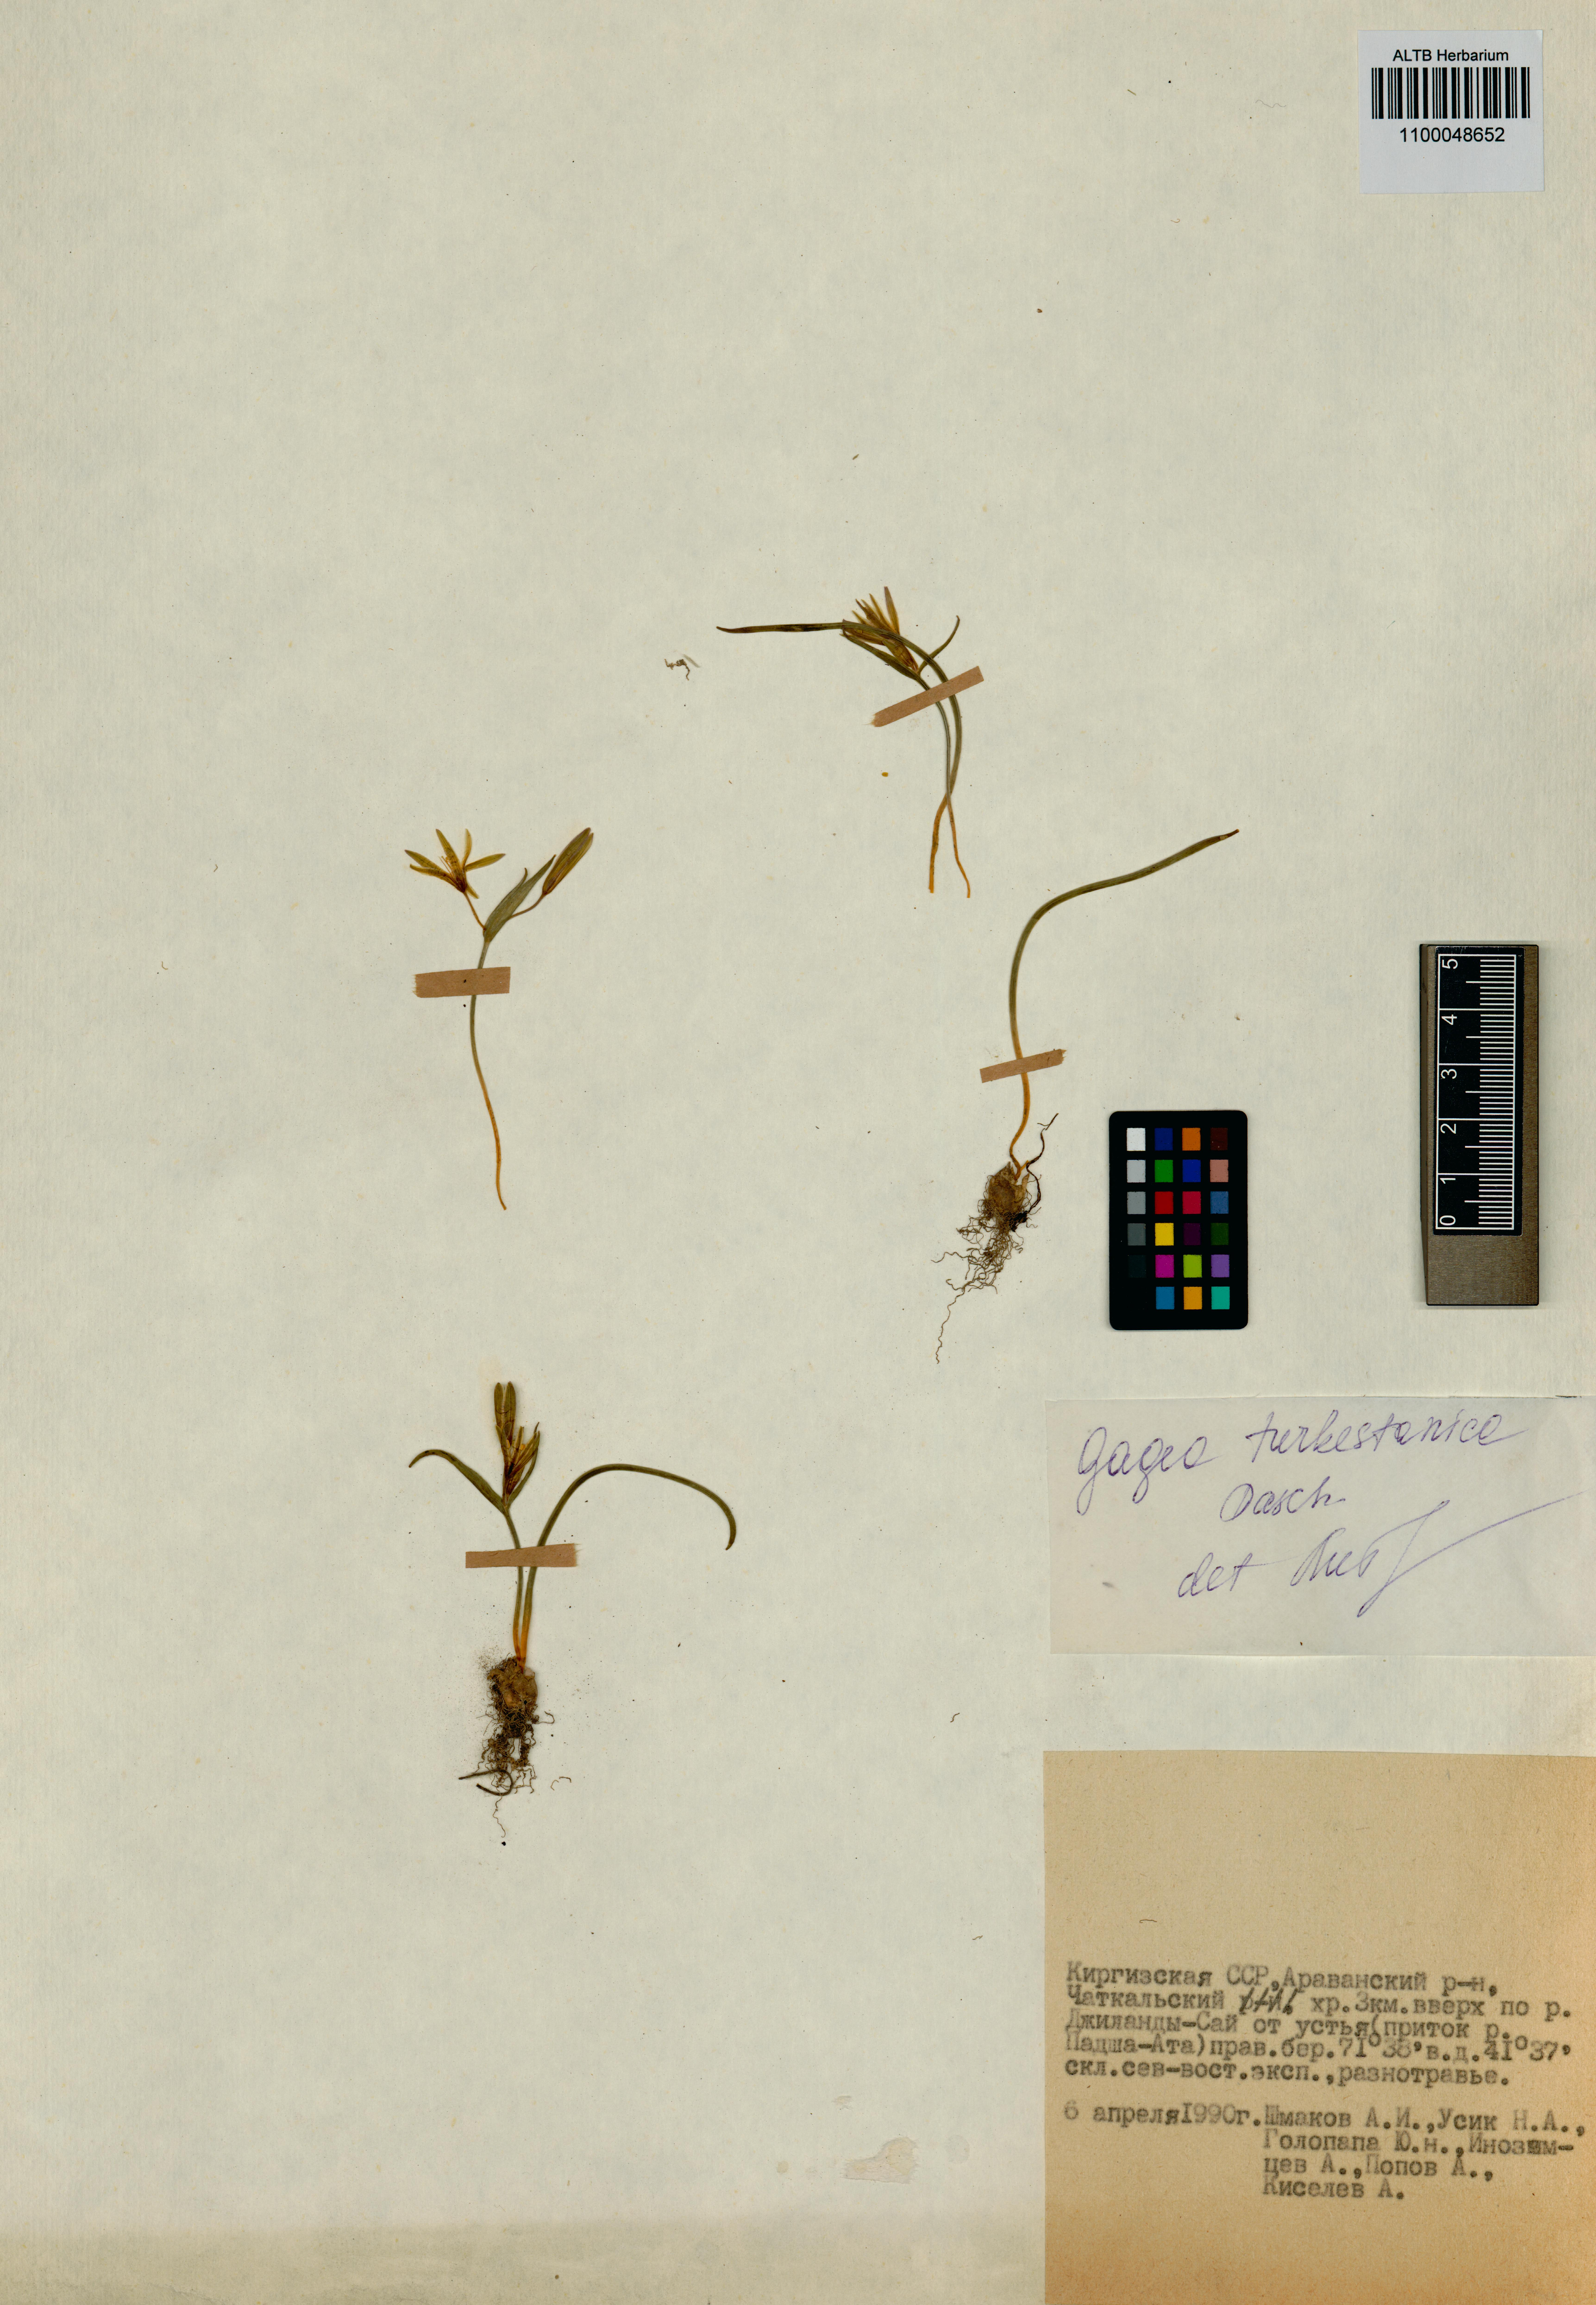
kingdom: Plantae
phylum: Tracheophyta
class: Liliopsida
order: Liliales
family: Liliaceae
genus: Gagea
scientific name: Gagea capusii
